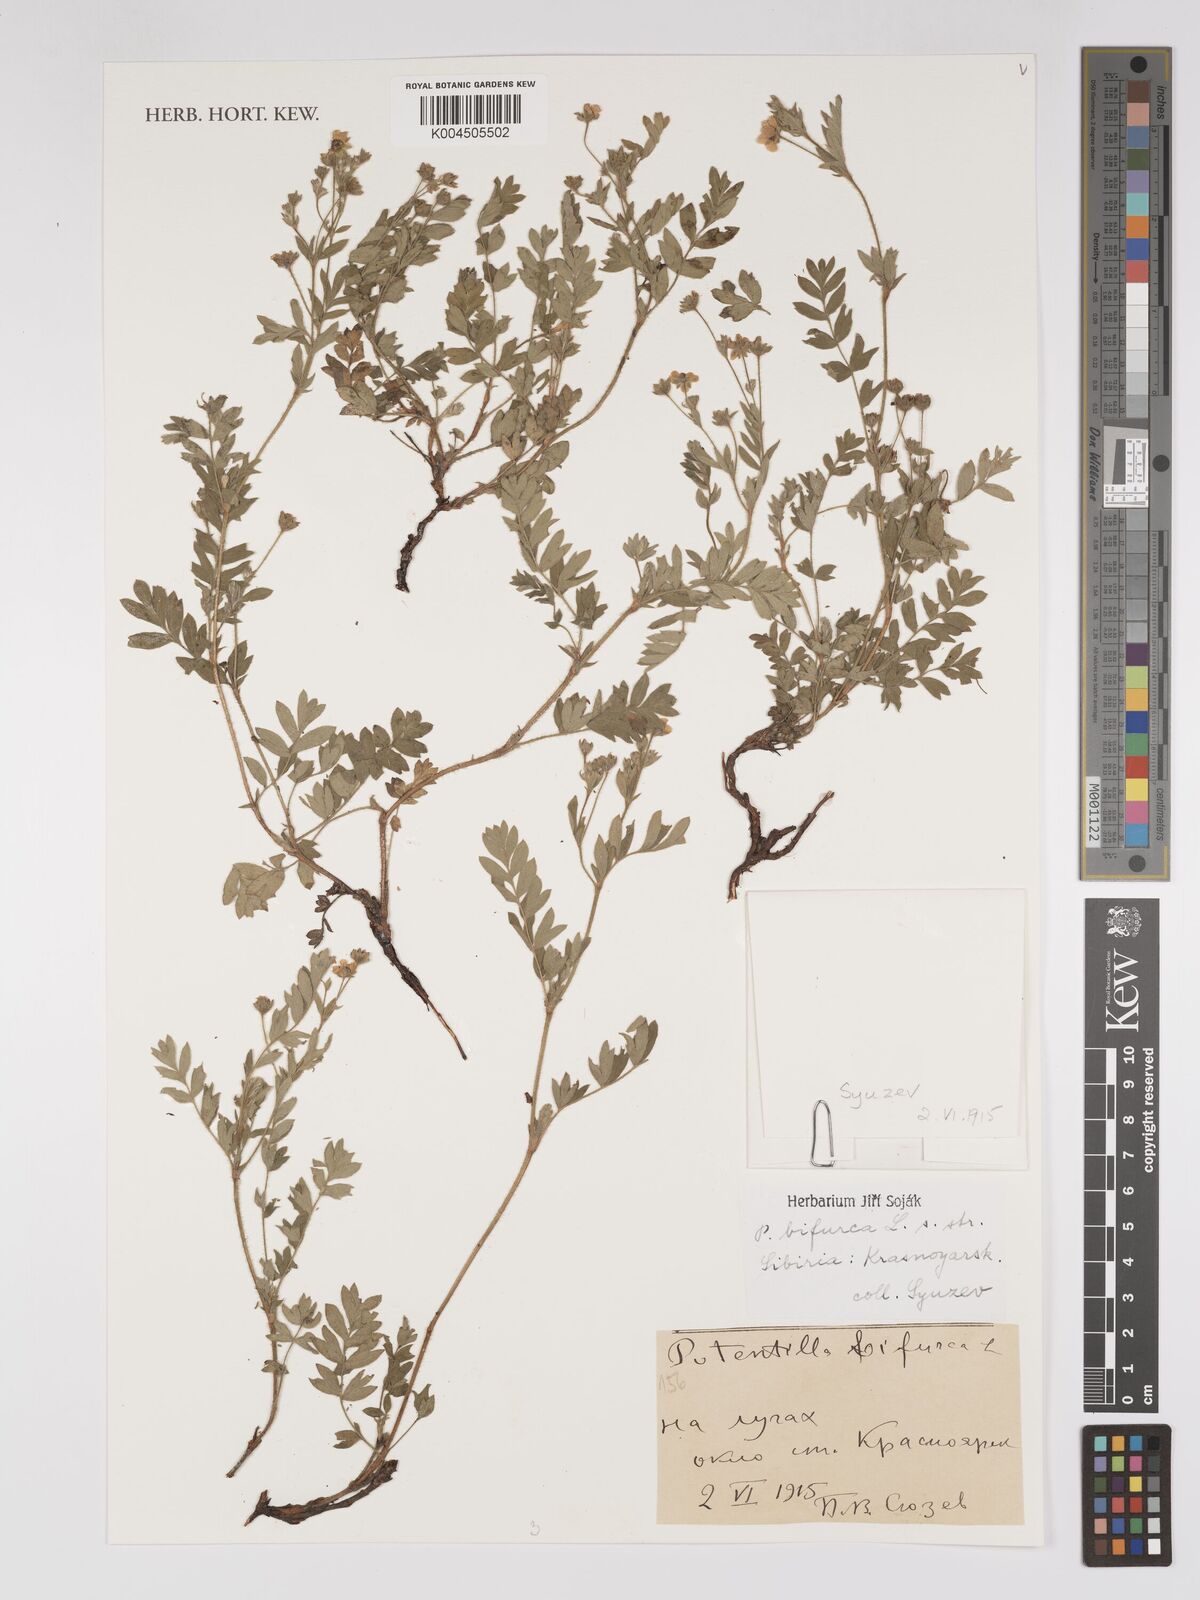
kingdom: Plantae
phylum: Tracheophyta
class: Magnoliopsida
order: Rosales
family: Rosaceae
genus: Sibbaldianthe
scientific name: Sibbaldianthe bifurca
